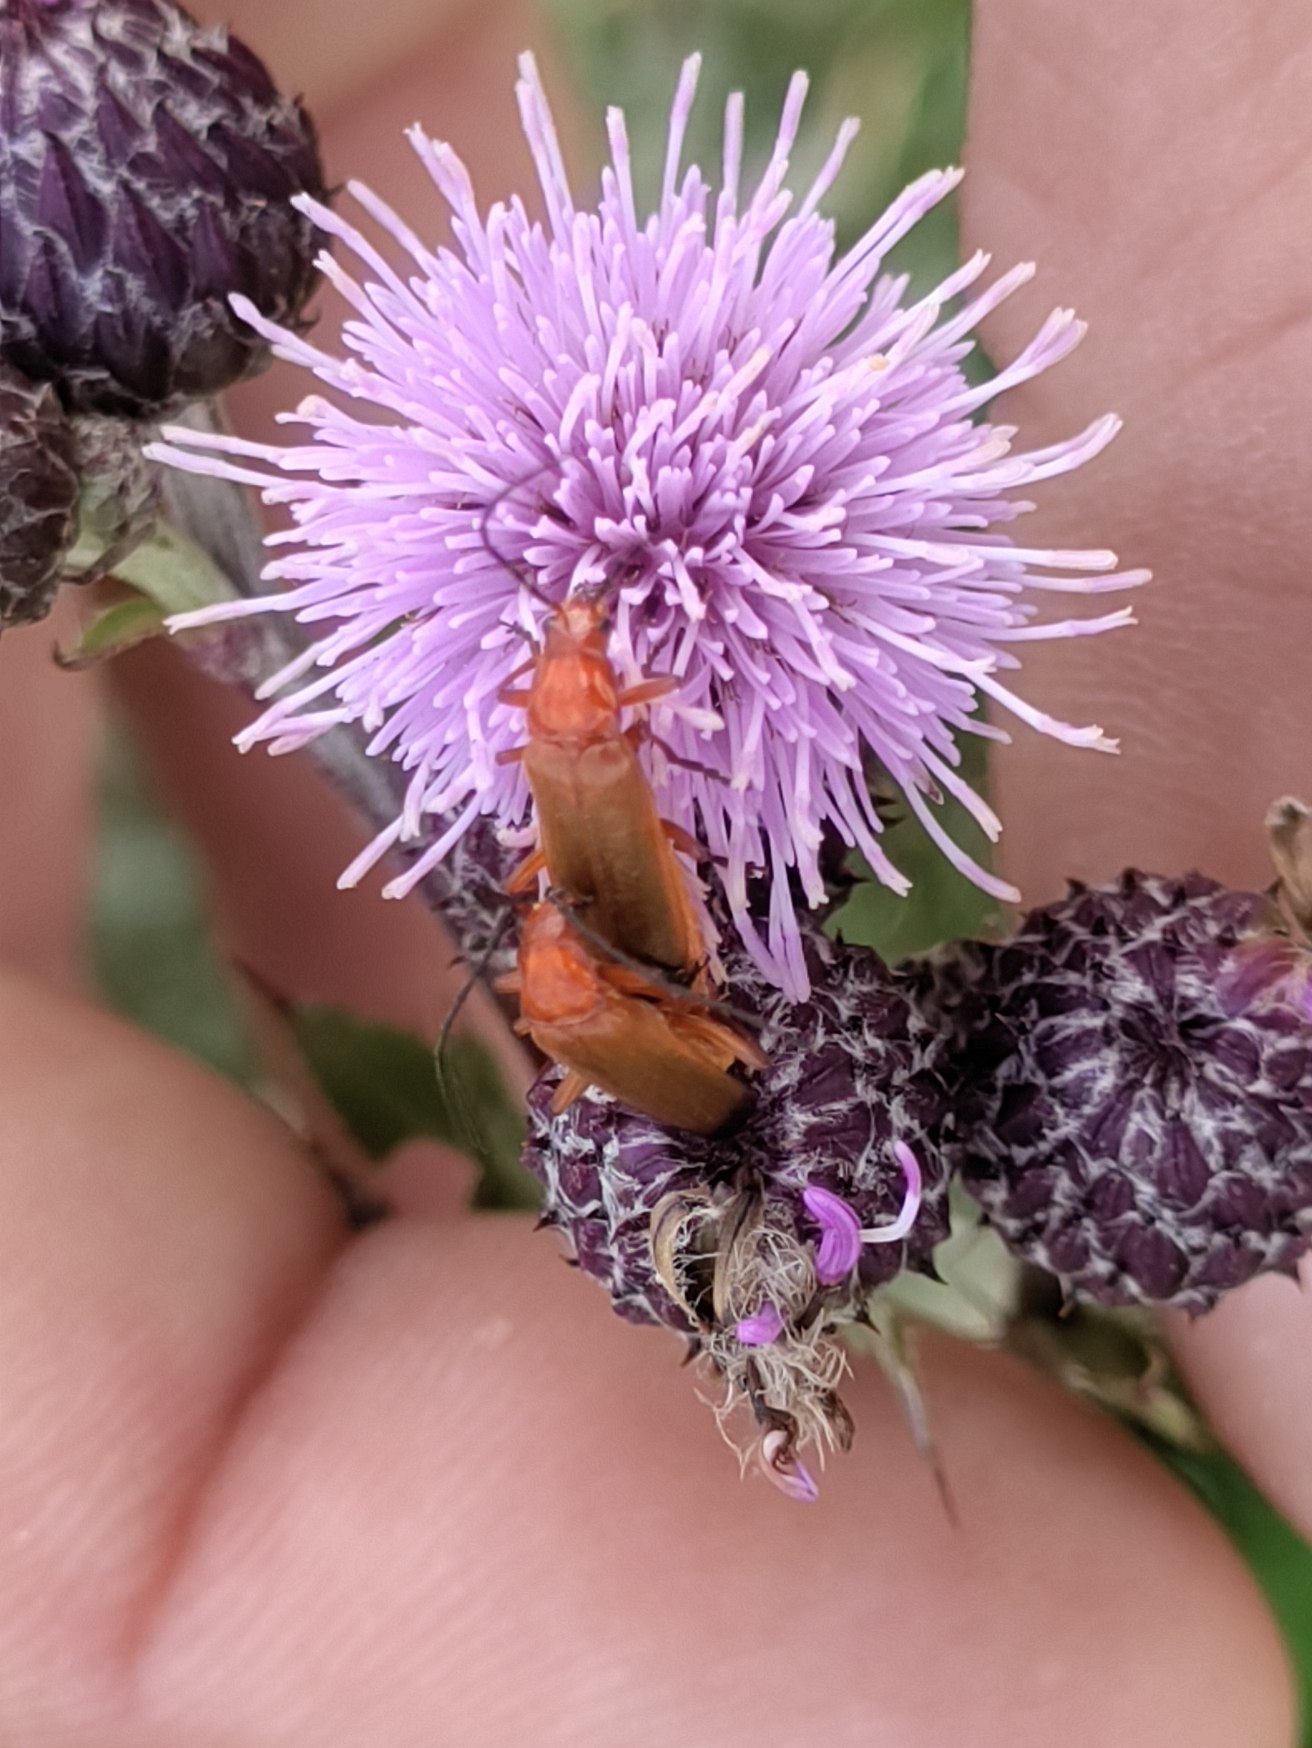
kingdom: Animalia
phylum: Arthropoda
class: Insecta
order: Coleoptera
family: Cantharidae
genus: Rhagonycha
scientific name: Rhagonycha fulva
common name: Præstebille
